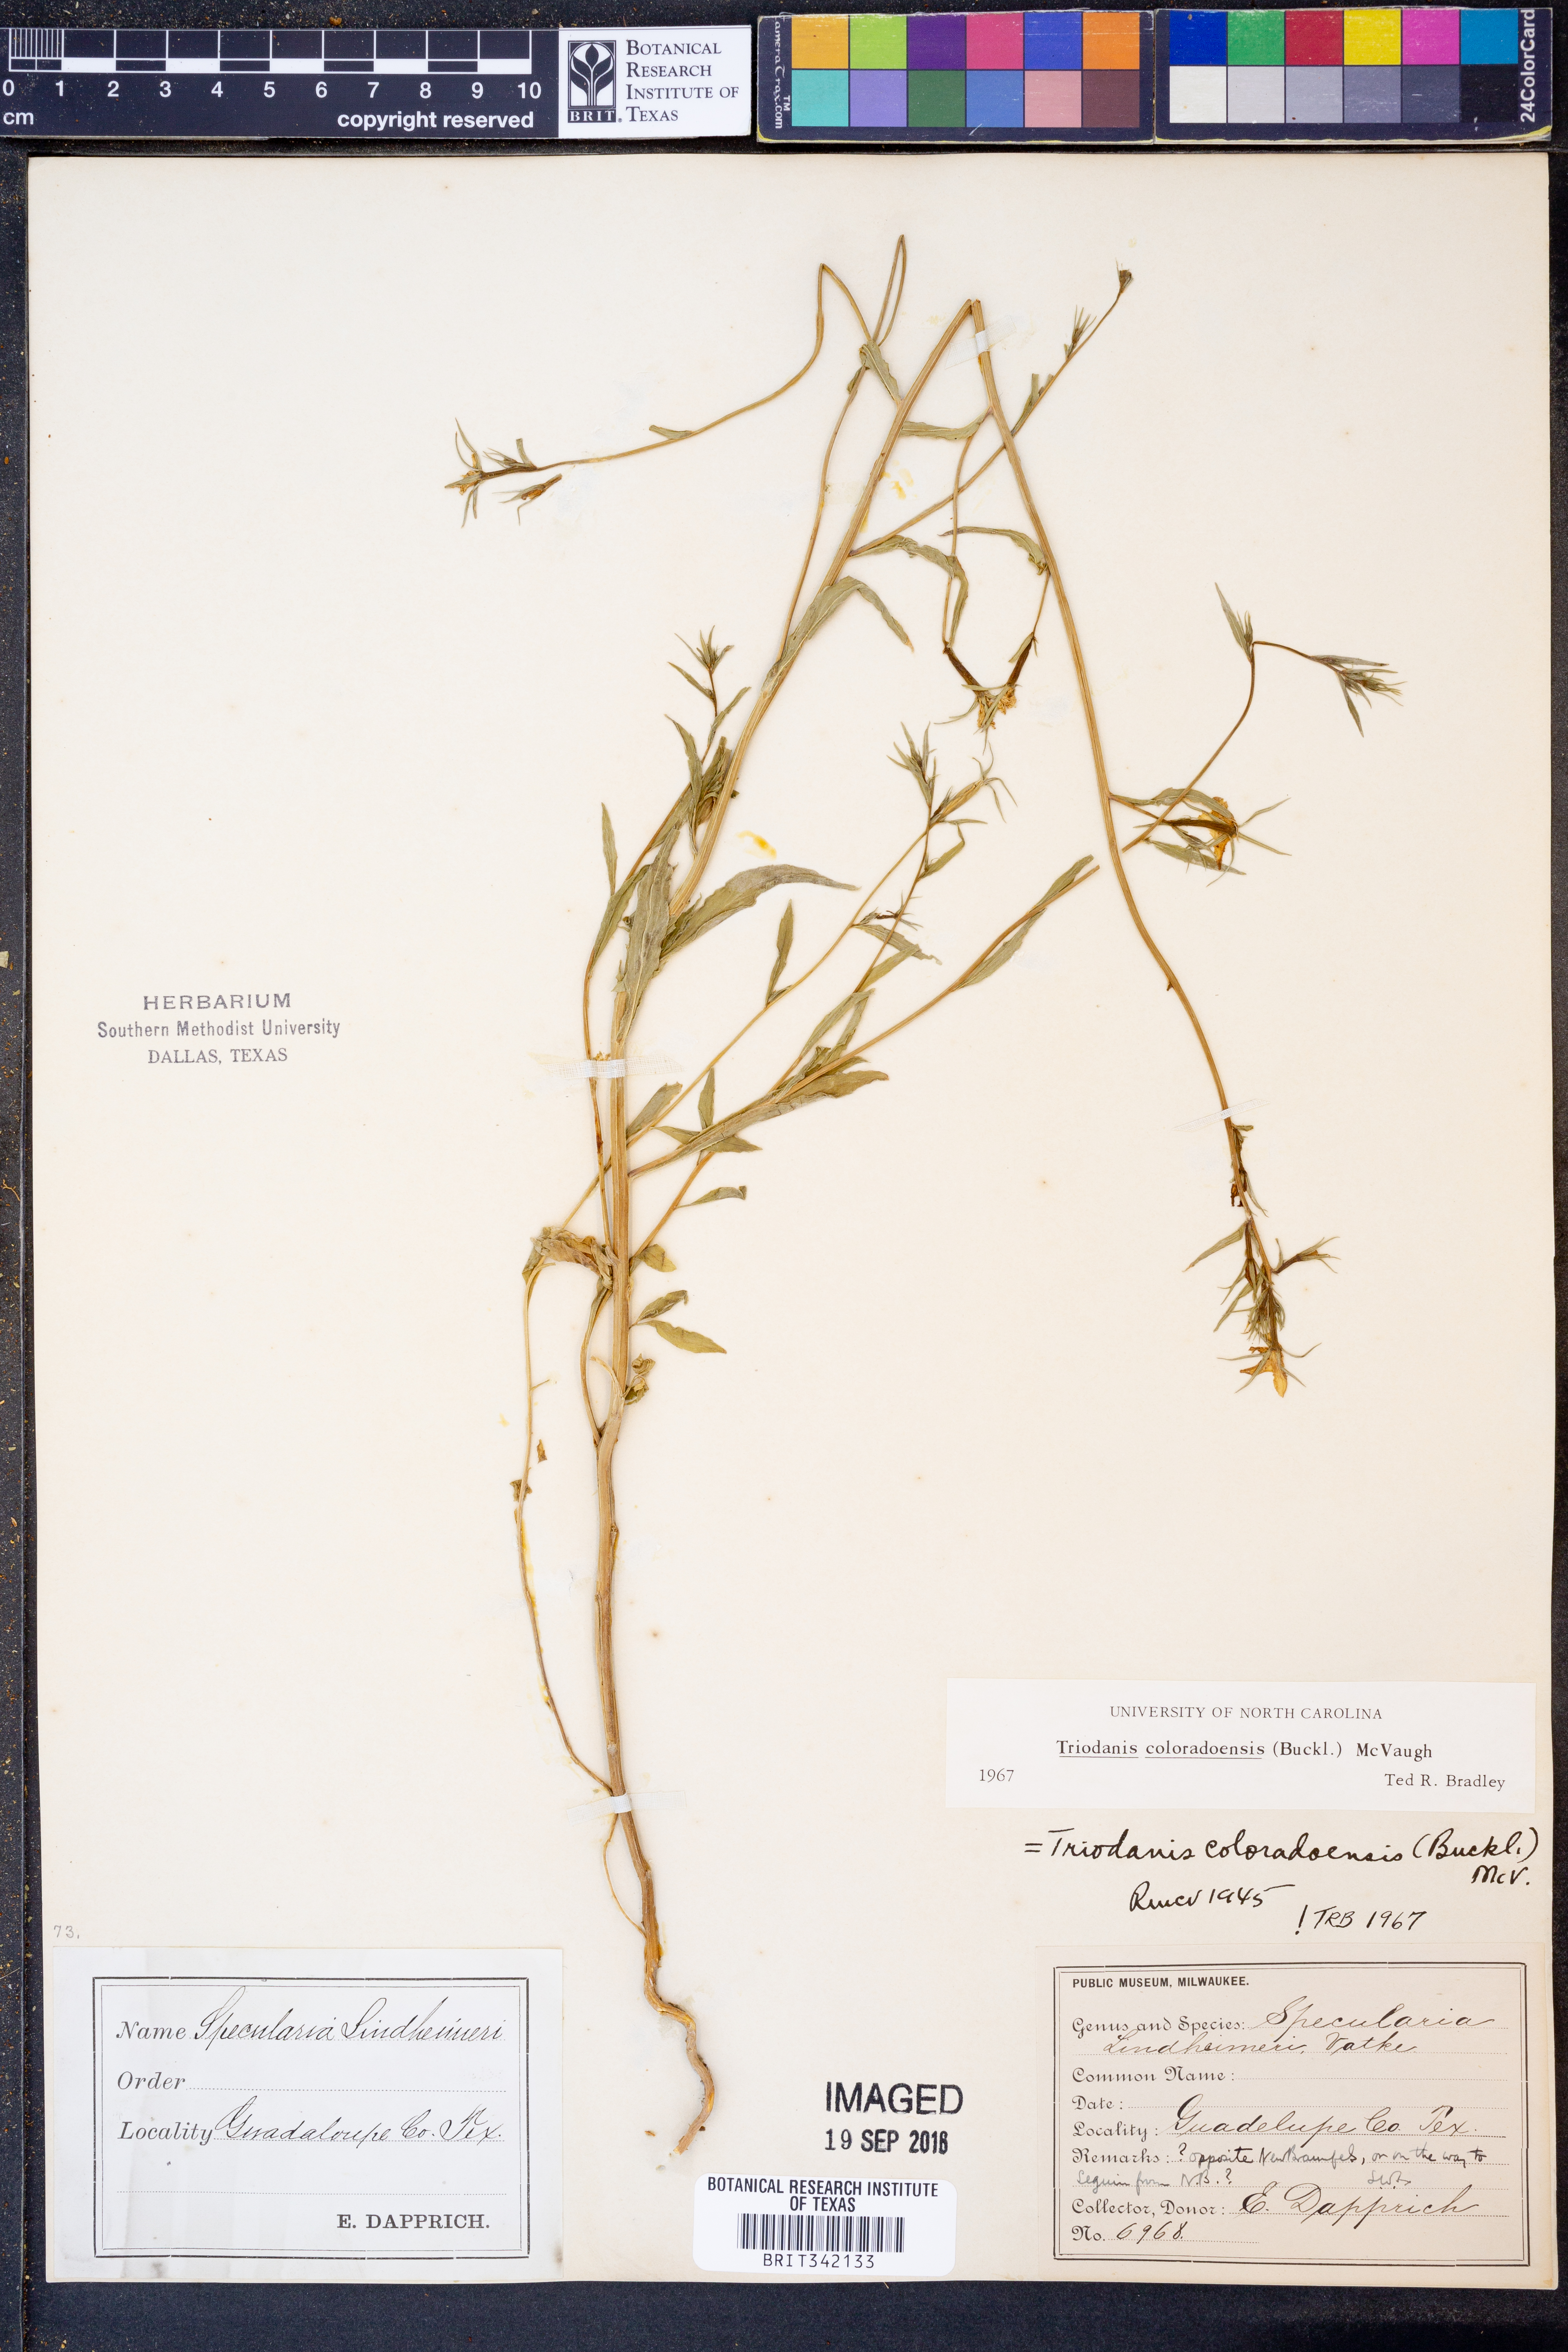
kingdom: Plantae
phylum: Tracheophyta
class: Magnoliopsida
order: Asterales
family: Campanulaceae
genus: Triodanis
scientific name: Triodanis coloradoensis
